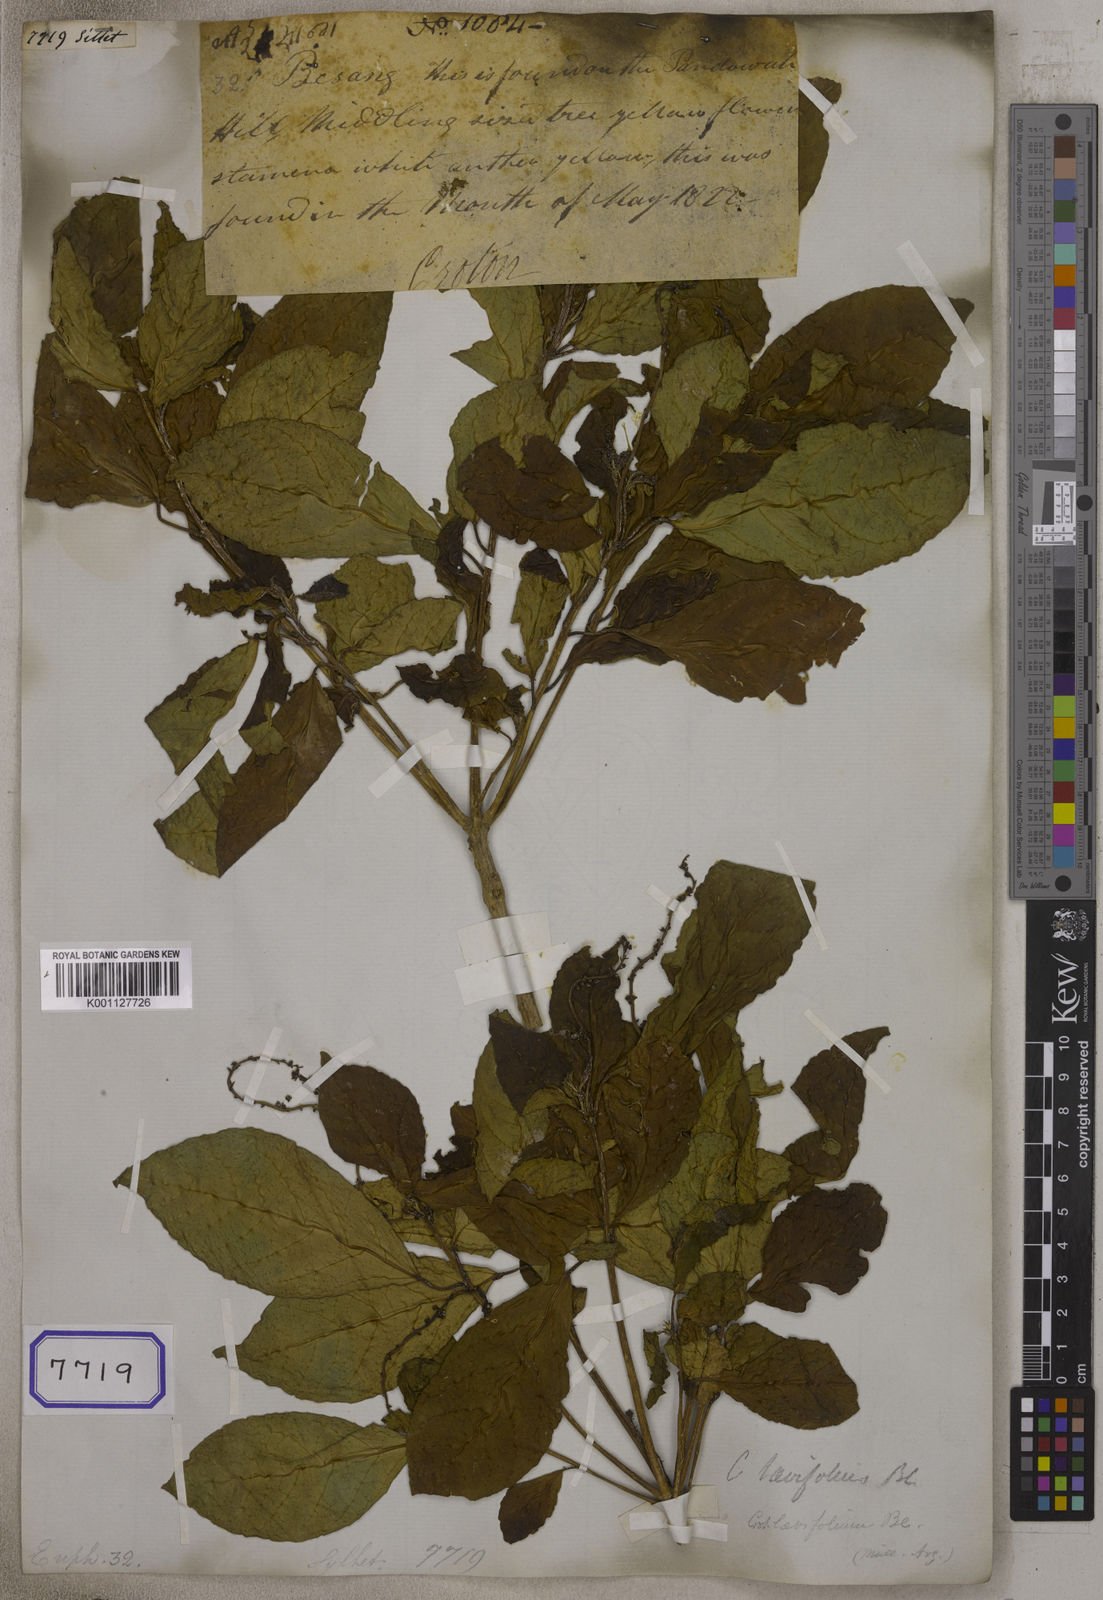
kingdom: Plantae
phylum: Tracheophyta
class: Magnoliopsida
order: Malpighiales
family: Euphorbiaceae
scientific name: Euphorbiaceae
